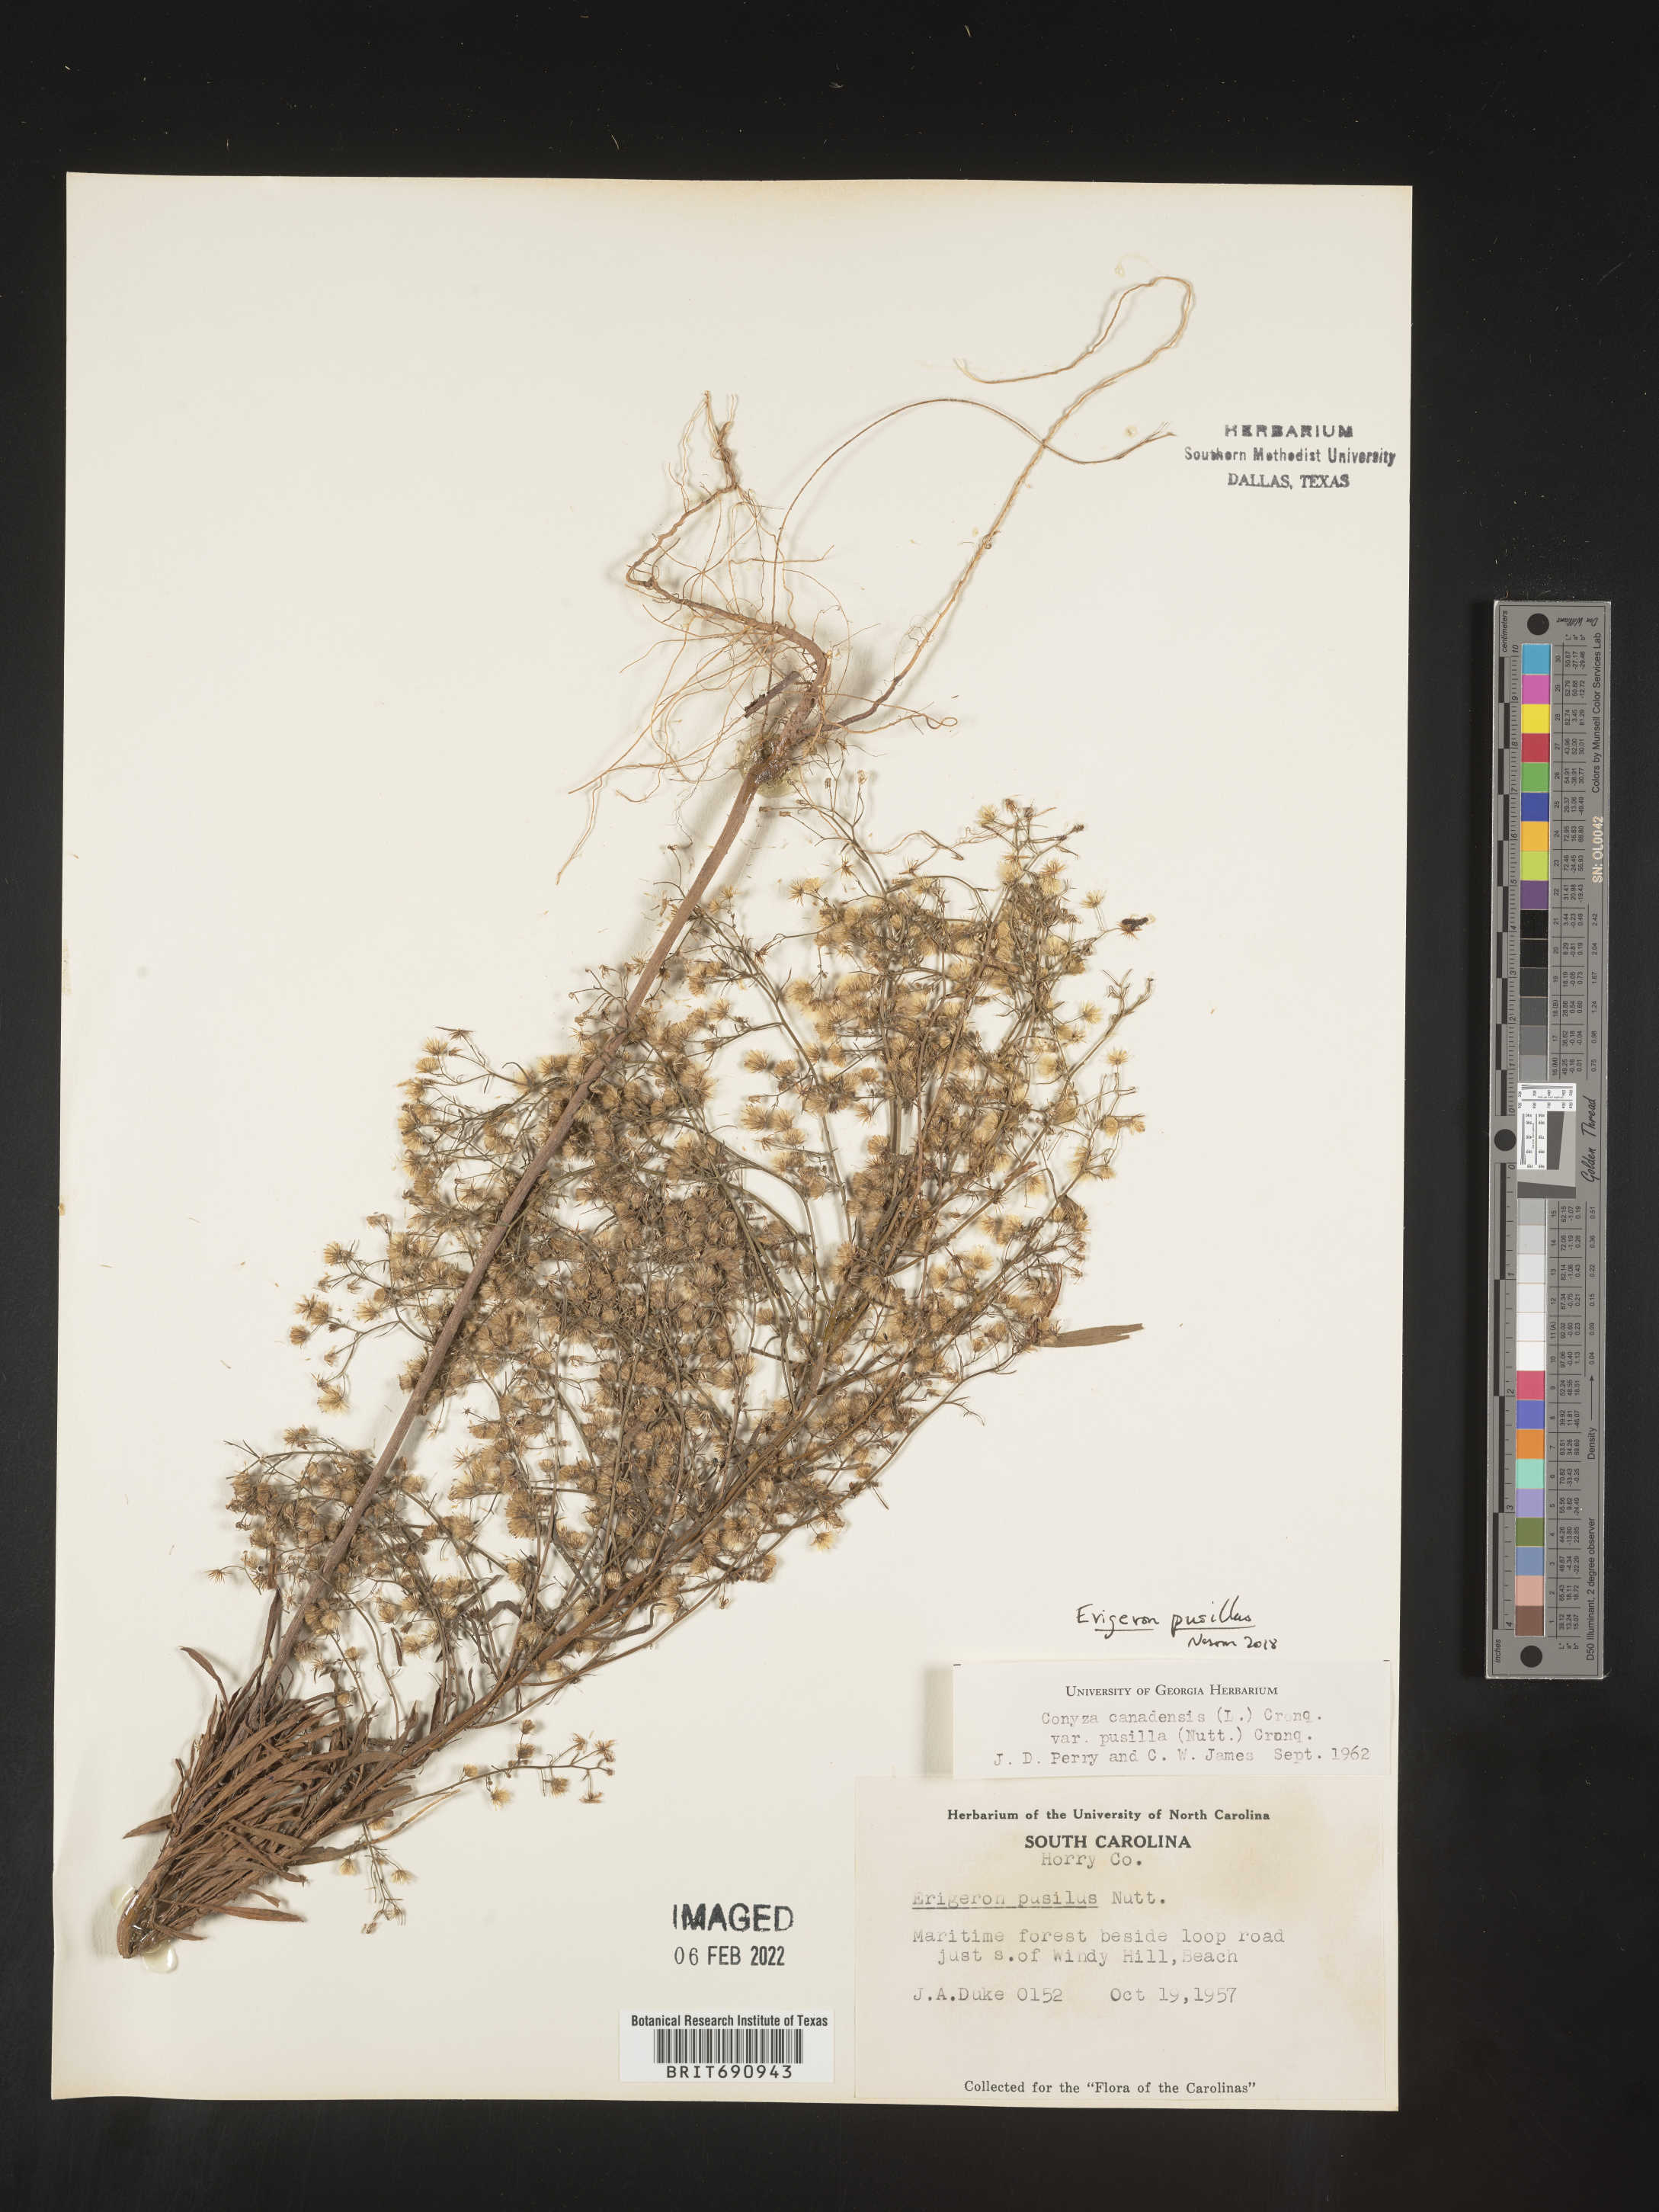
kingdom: Plantae
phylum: Tracheophyta
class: Magnoliopsida
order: Asterales
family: Asteraceae
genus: Erigeron
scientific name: Erigeron canadensis
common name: Canadian fleabane
